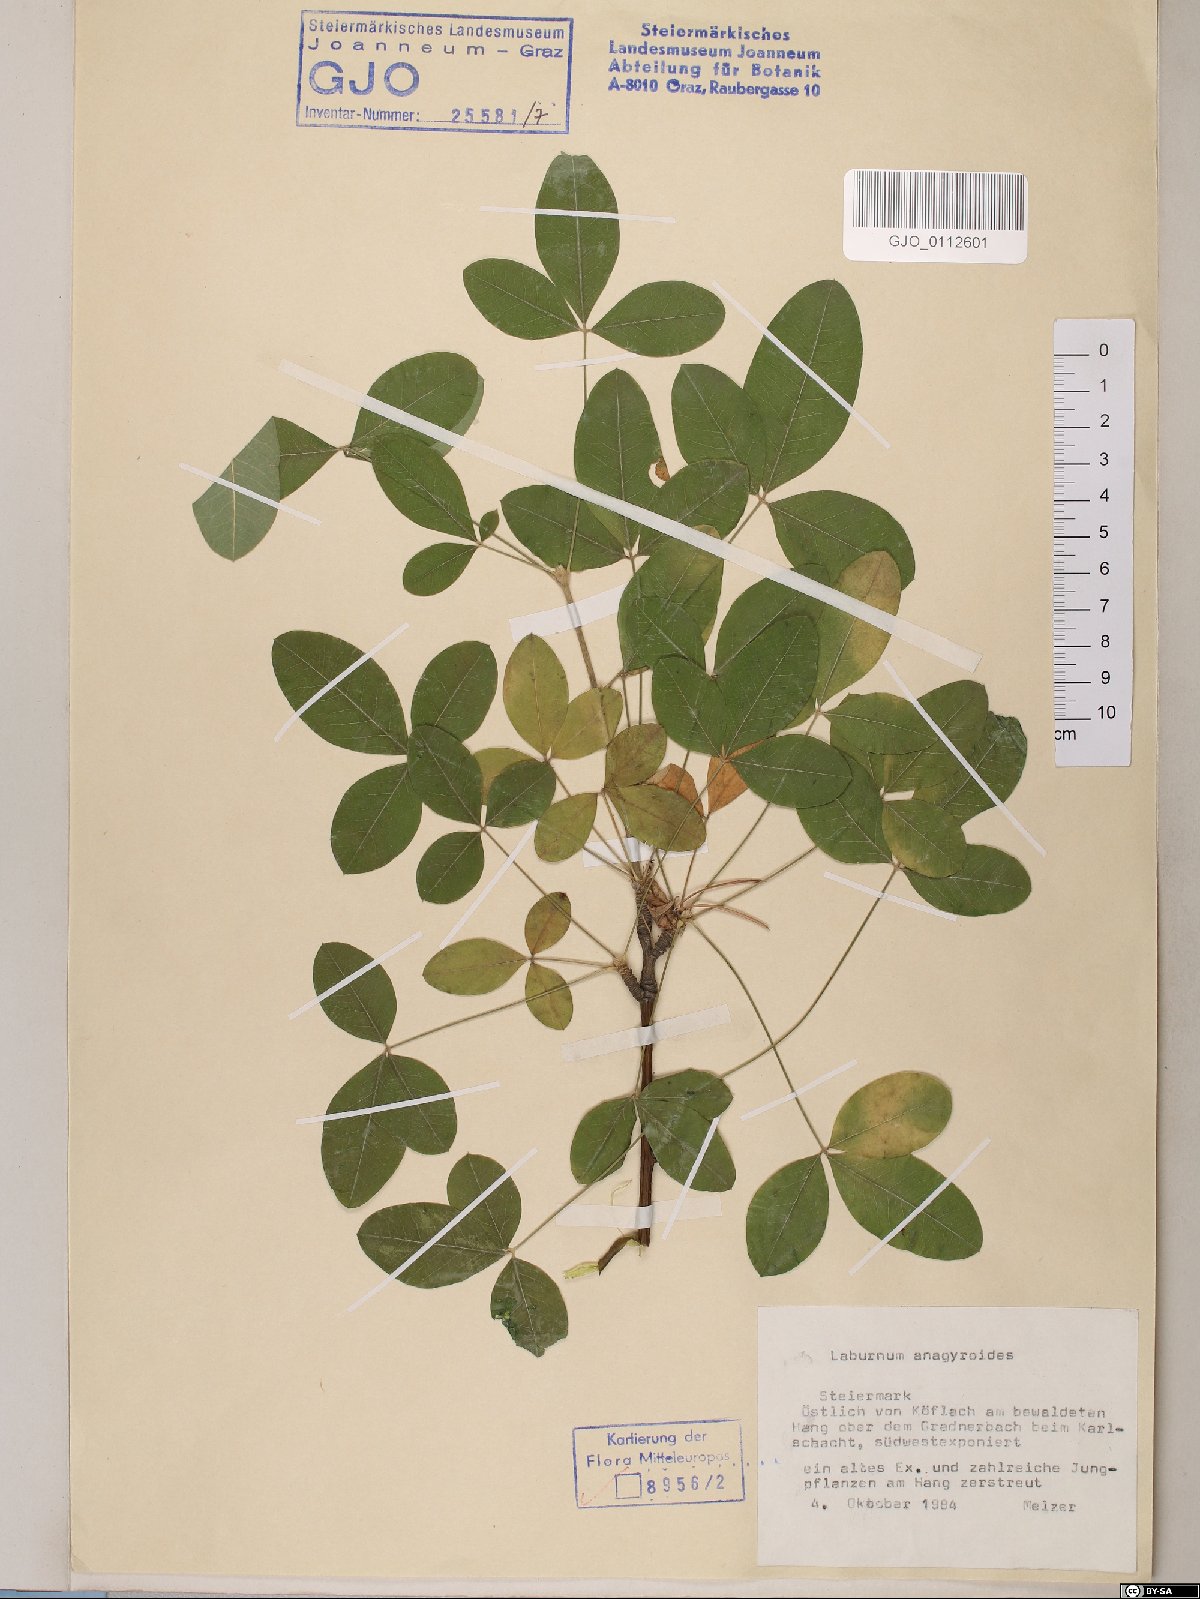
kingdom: Plantae
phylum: Tracheophyta
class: Magnoliopsida
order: Fabales
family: Fabaceae
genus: Laburnum
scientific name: Laburnum anagyroides
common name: Laburnum
